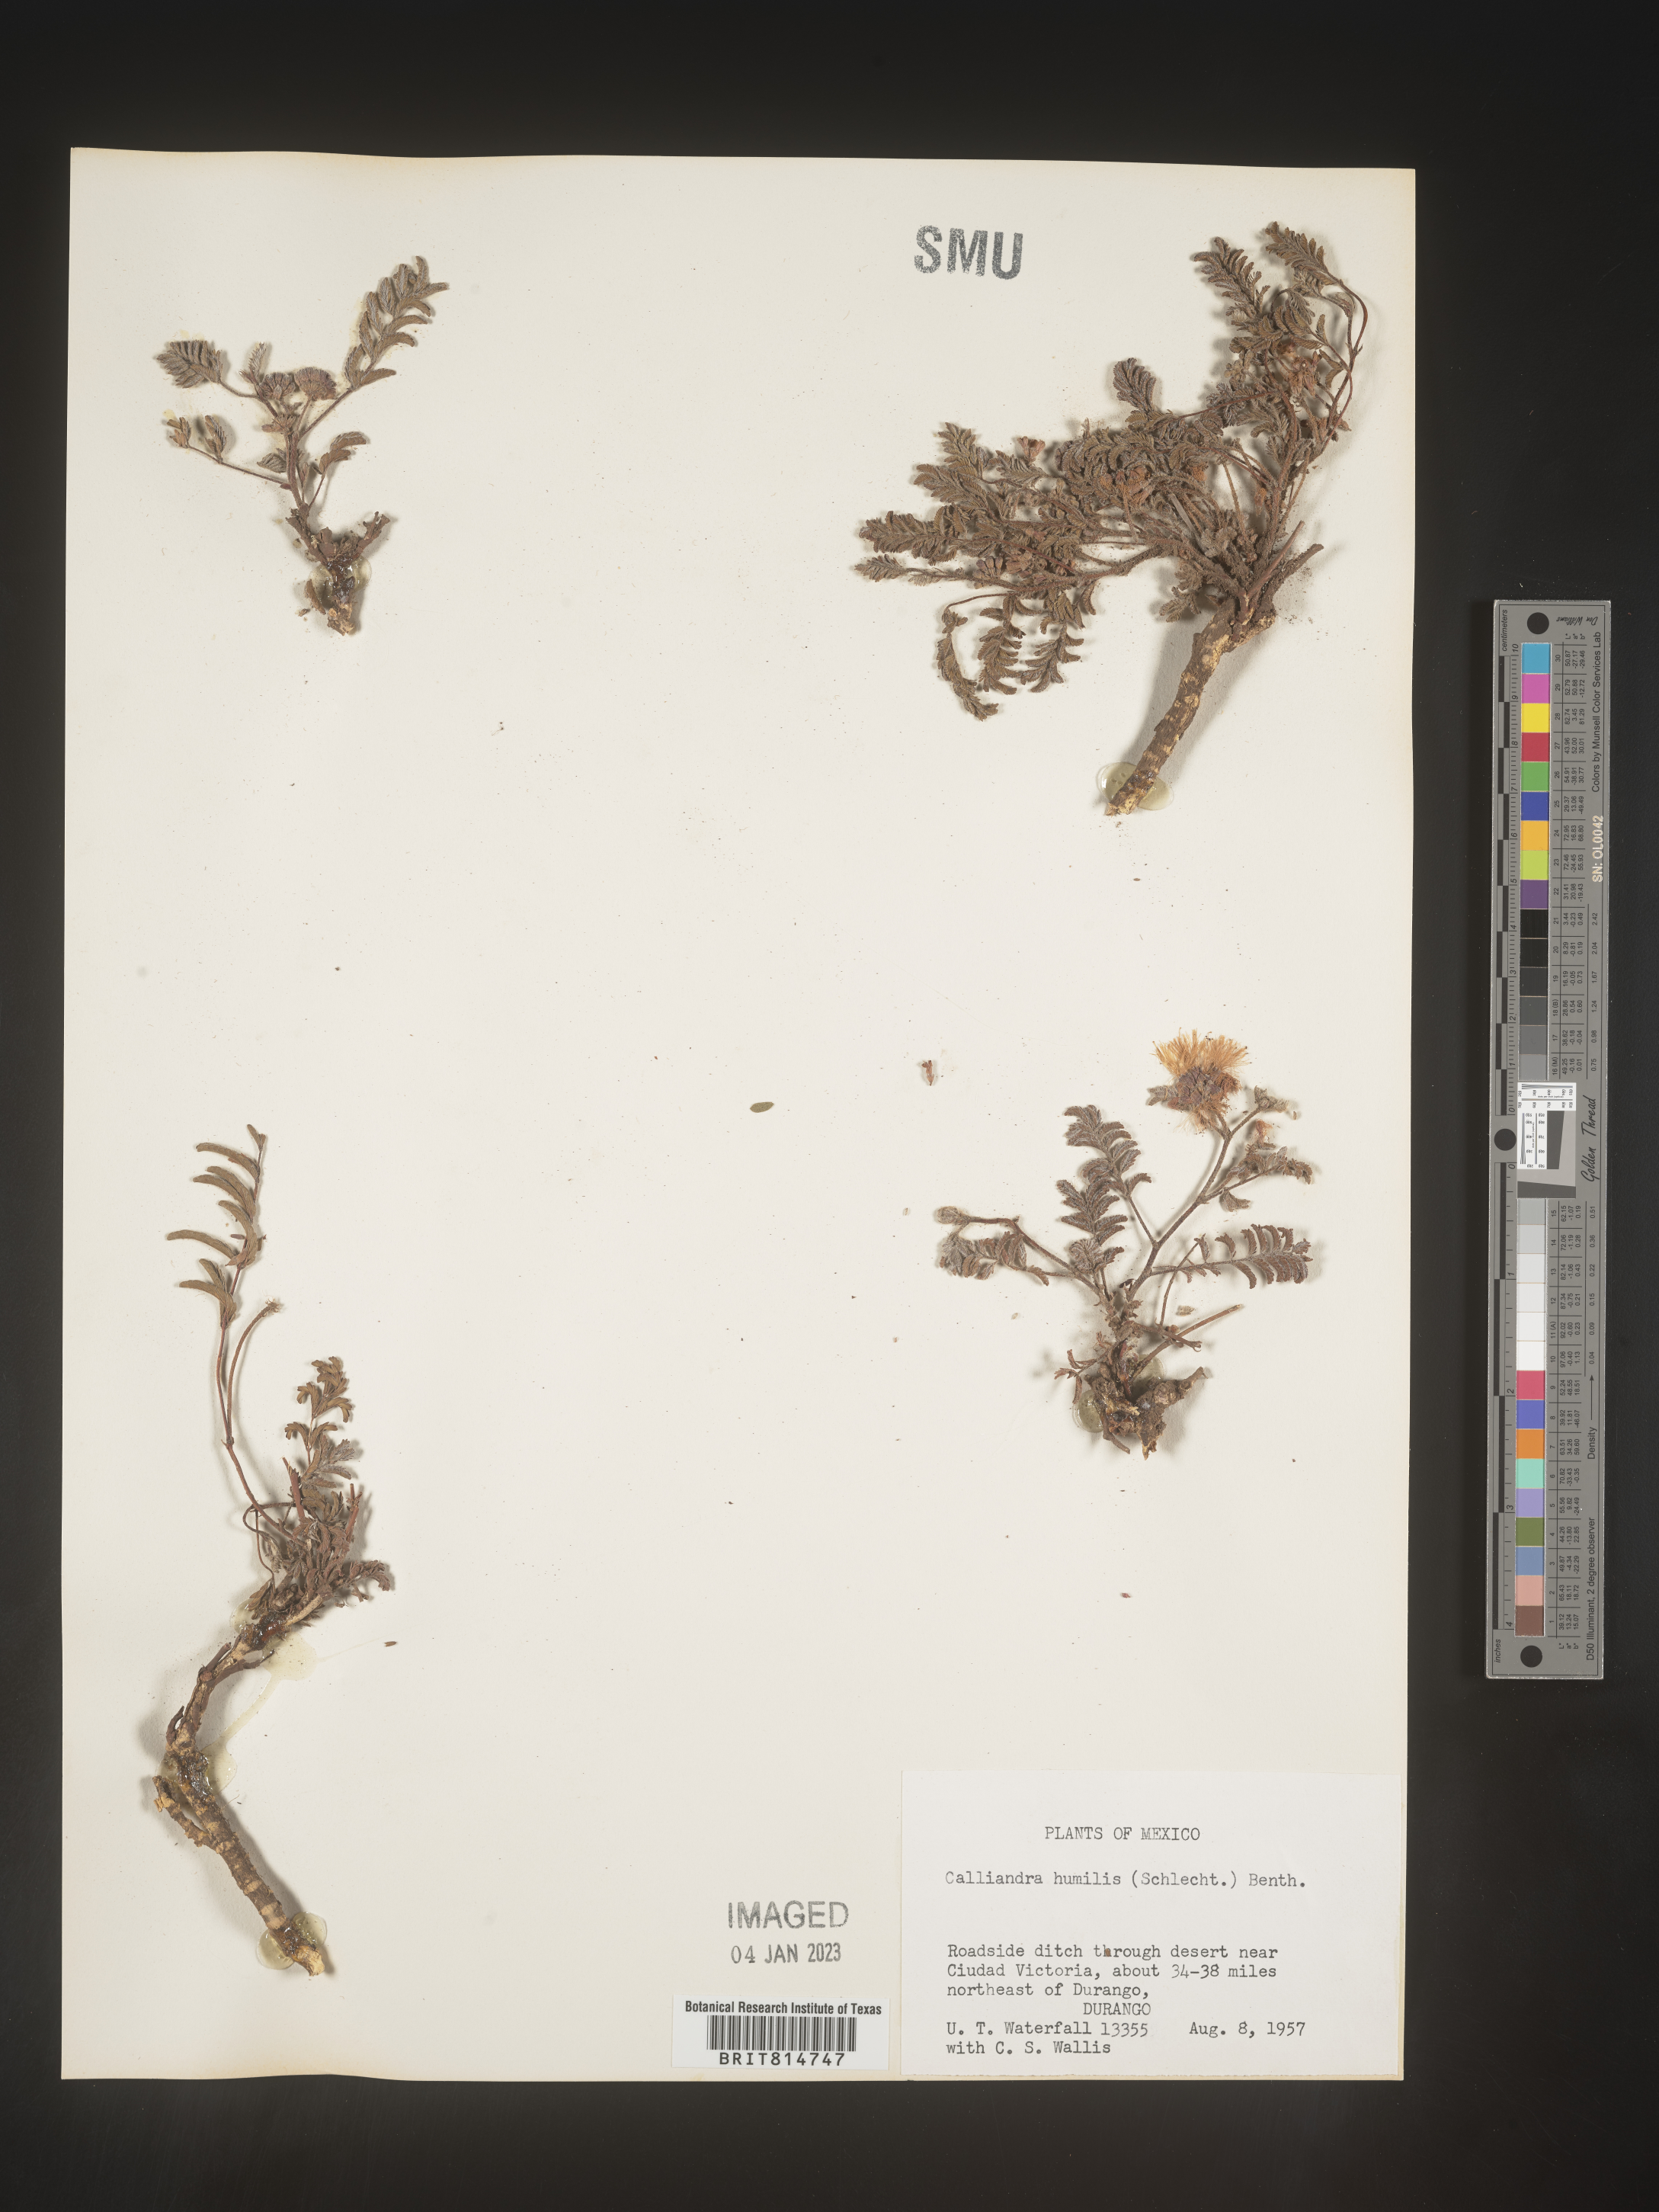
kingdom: Plantae
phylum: Tracheophyta
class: Magnoliopsida
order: Fabales
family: Fabaceae
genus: Calliandra
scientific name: Calliandra
